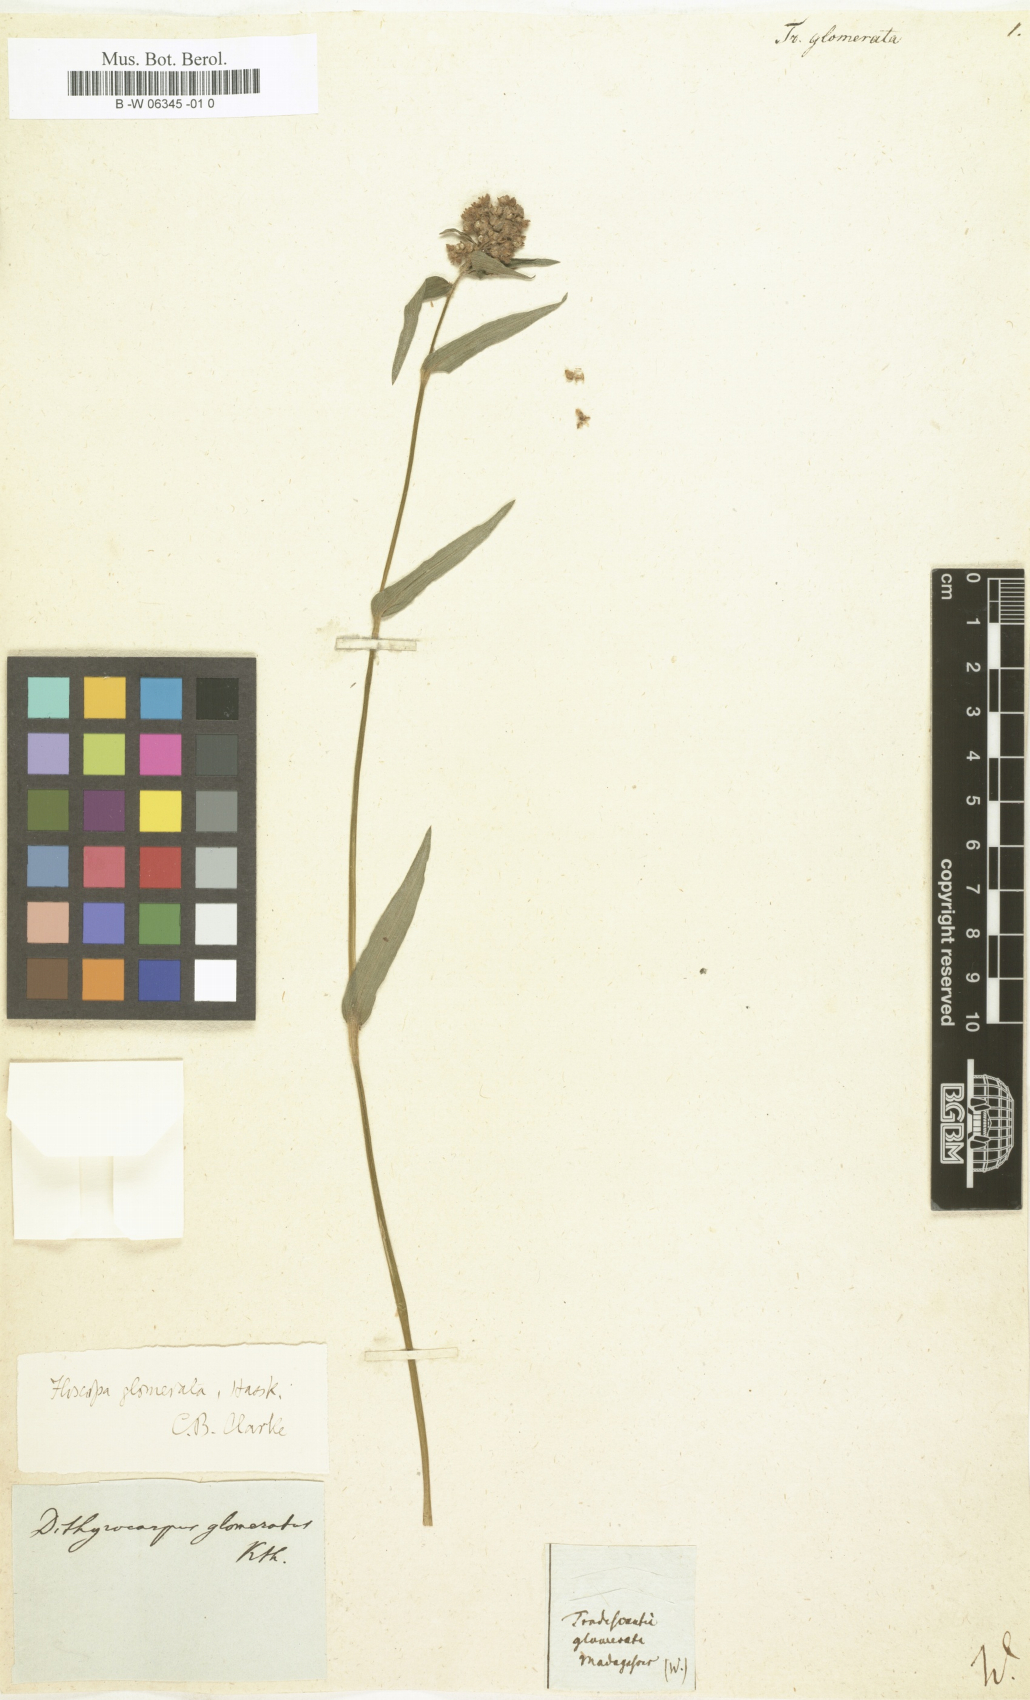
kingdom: Plantae
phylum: Tracheophyta
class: Liliopsida
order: Commelinales
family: Commelinaceae
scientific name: Commelinaceae
